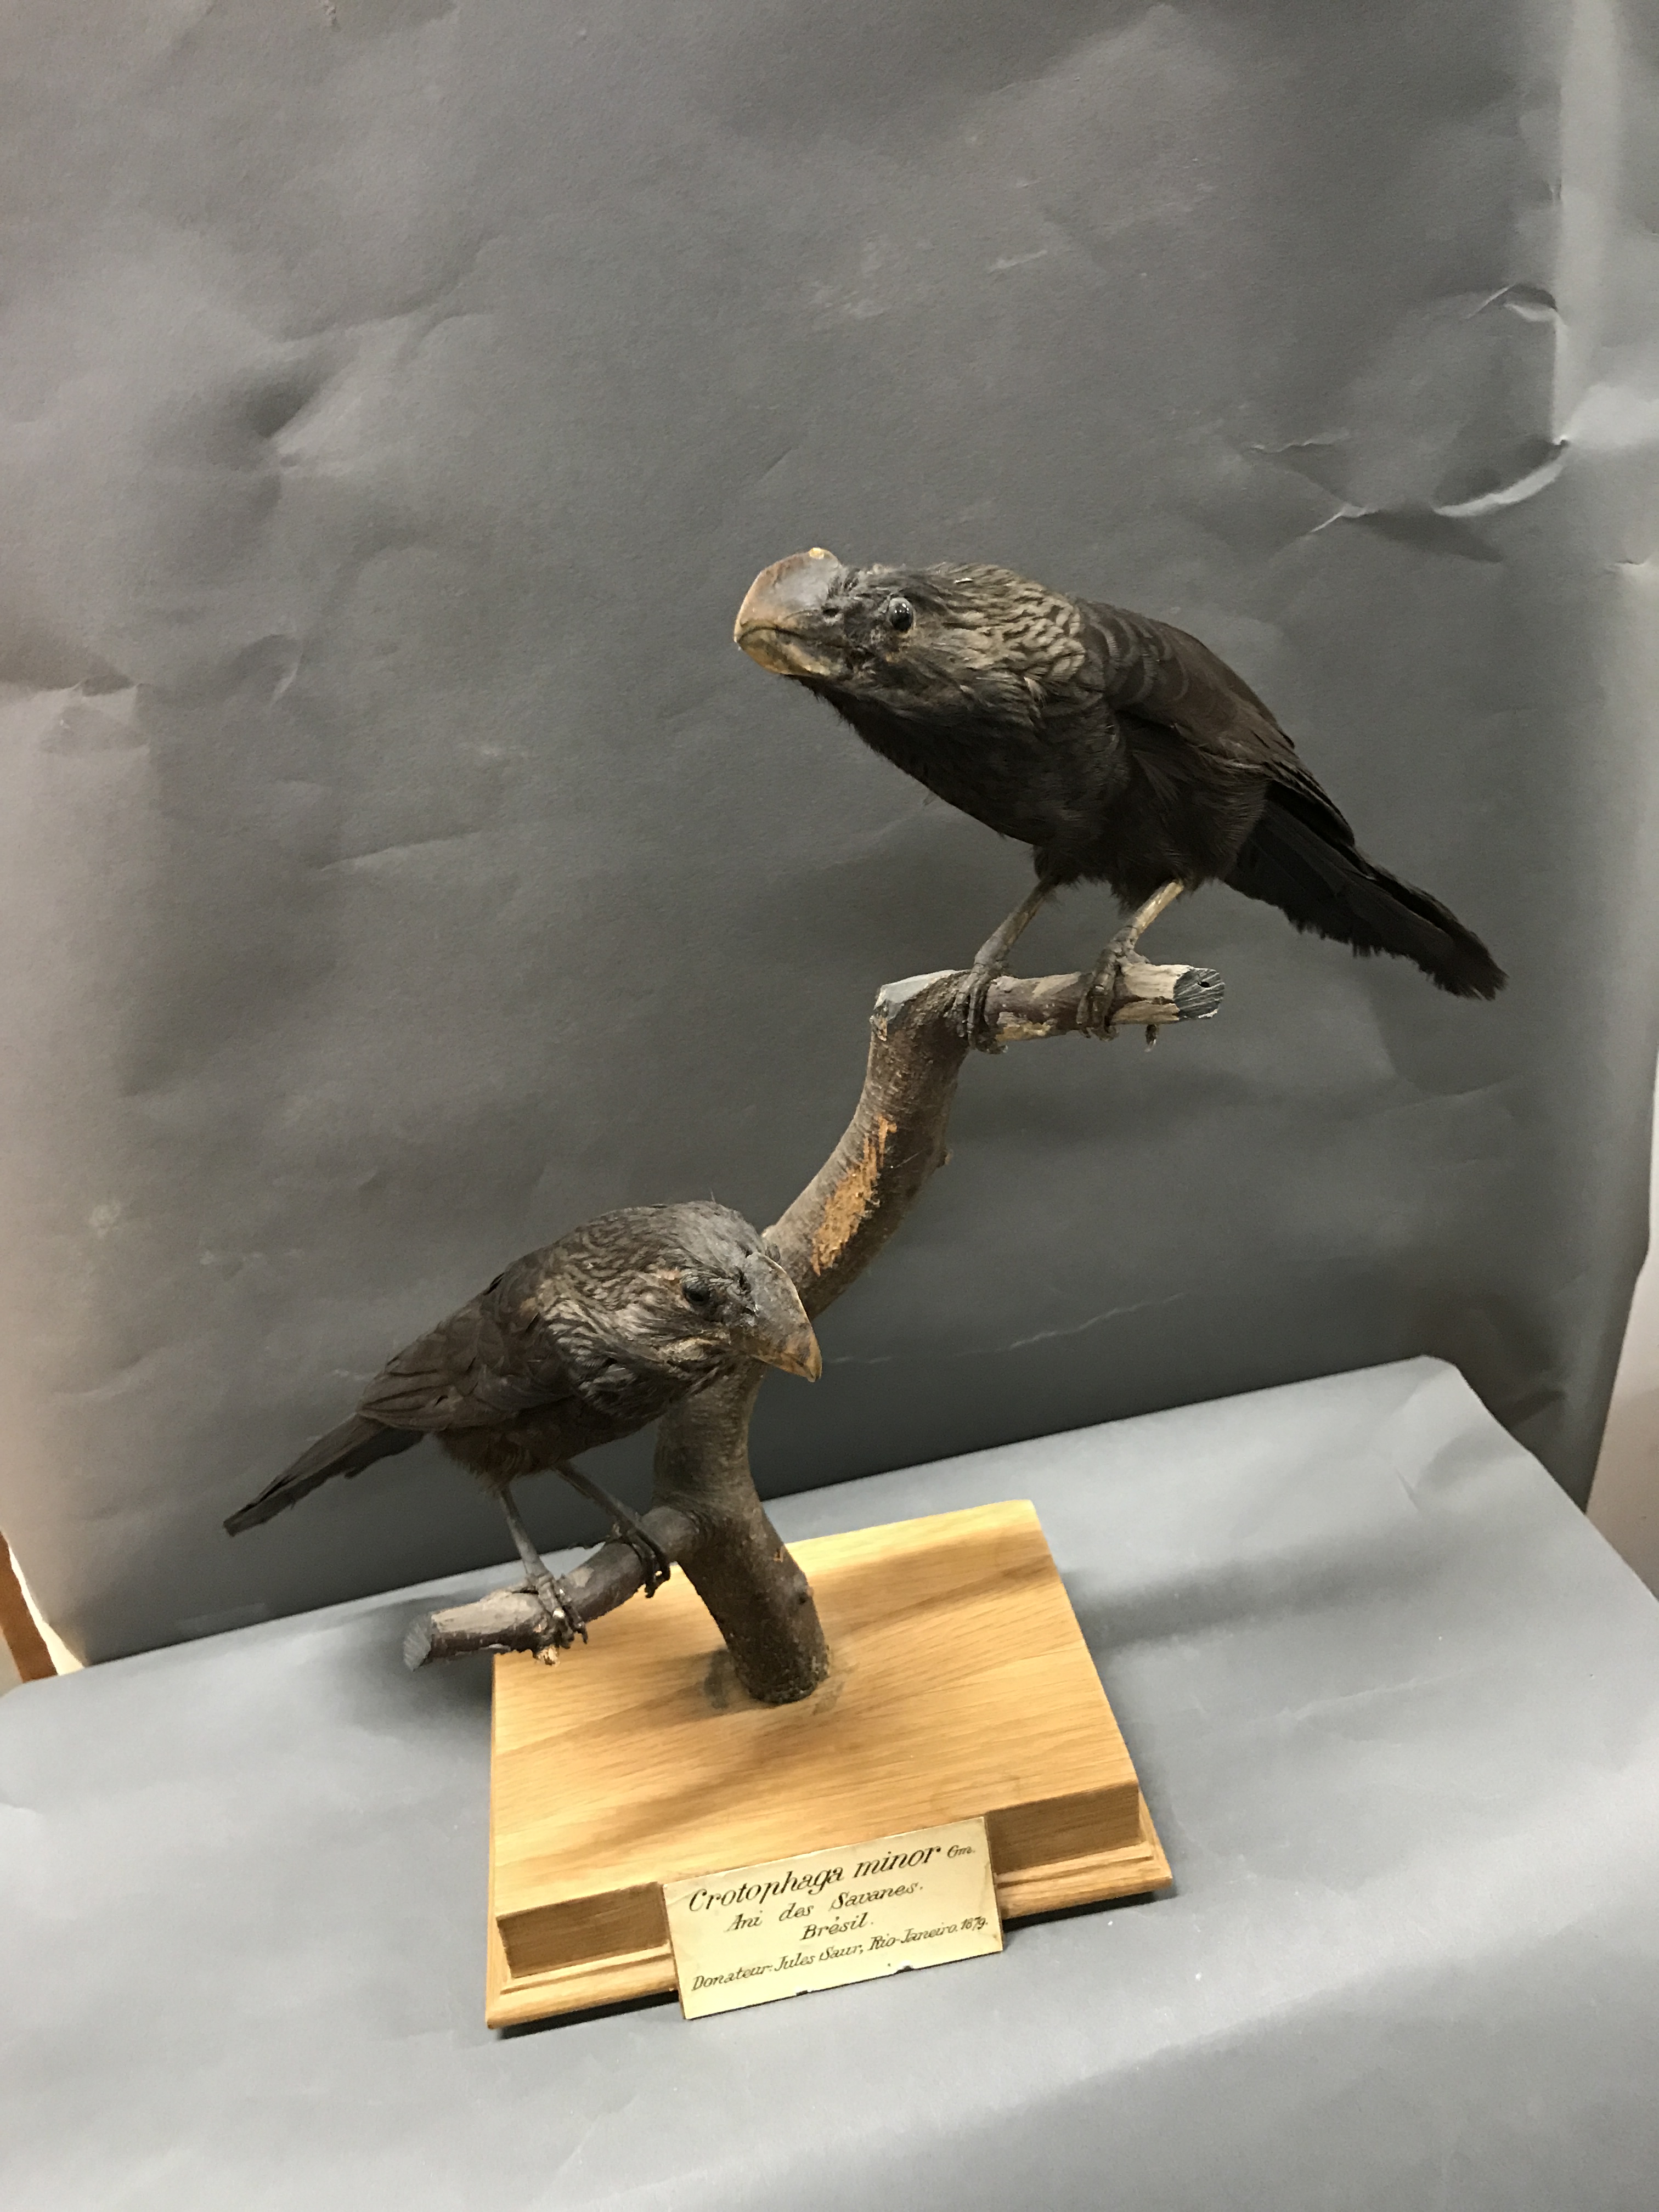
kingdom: Animalia
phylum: Chordata
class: Aves
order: Cuculiformes
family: Cuculidae
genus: Crotophaga
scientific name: Crotophaga ani
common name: Smooth-billed ani
